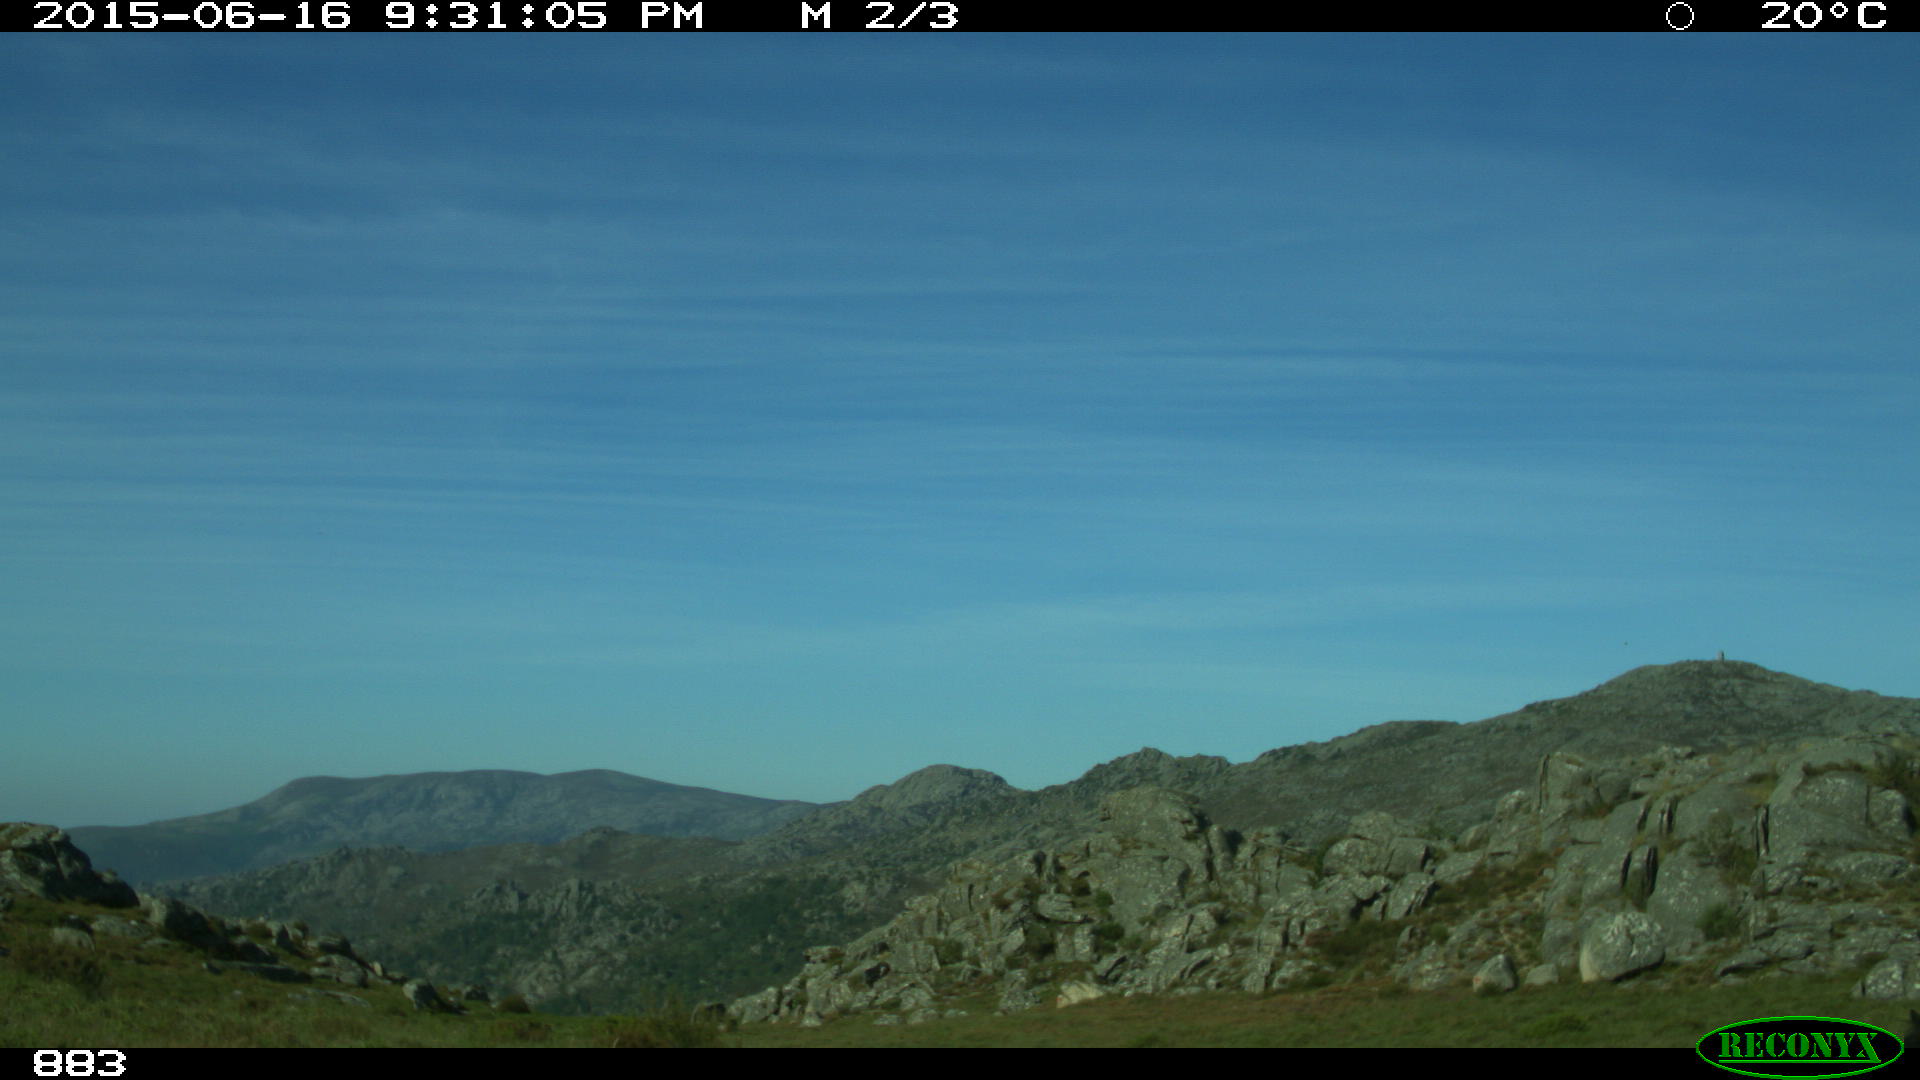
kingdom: Animalia
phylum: Chordata
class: Mammalia
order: Perissodactyla
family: Equidae
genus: Equus
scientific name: Equus caballus
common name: Horse
